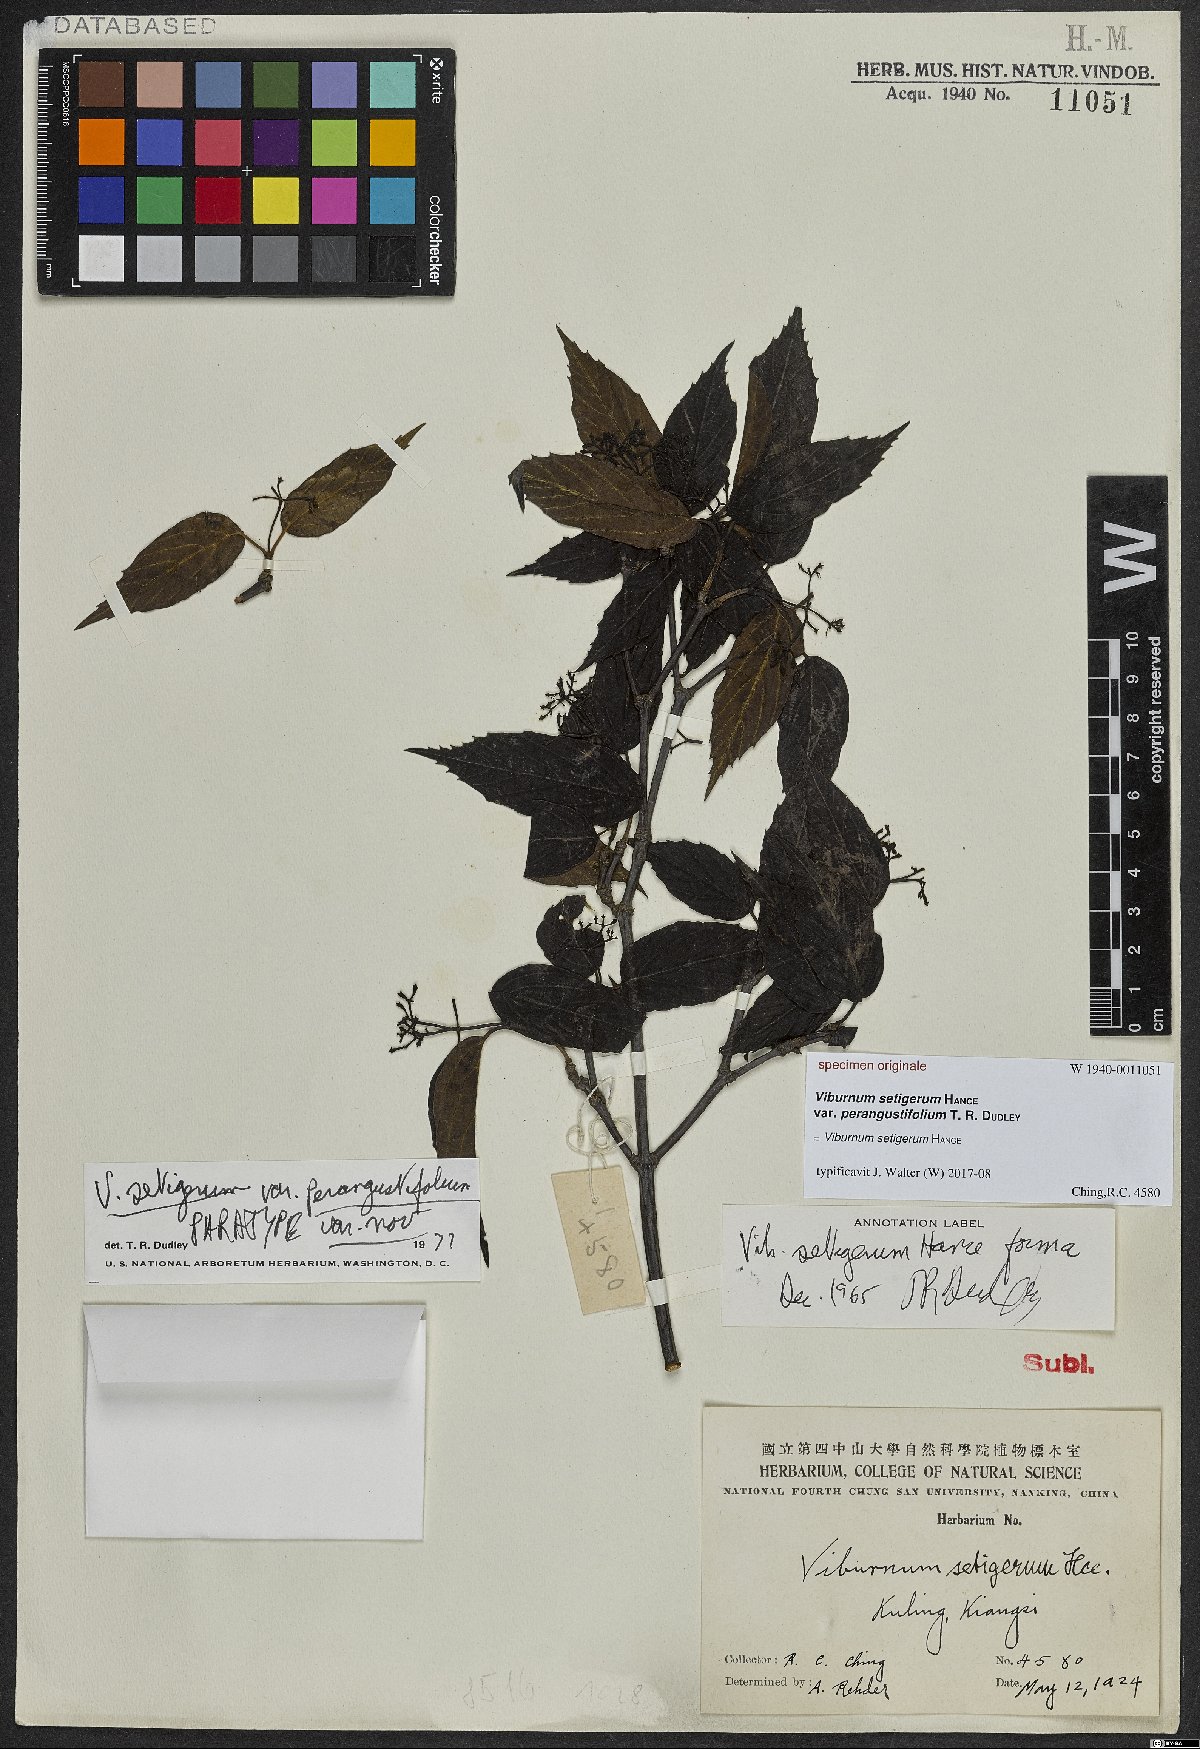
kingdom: Plantae
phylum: Tracheophyta
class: Magnoliopsida
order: Dipsacales
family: Viburnaceae
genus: Viburnum
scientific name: Viburnum setigerum
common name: Tea viburnum
